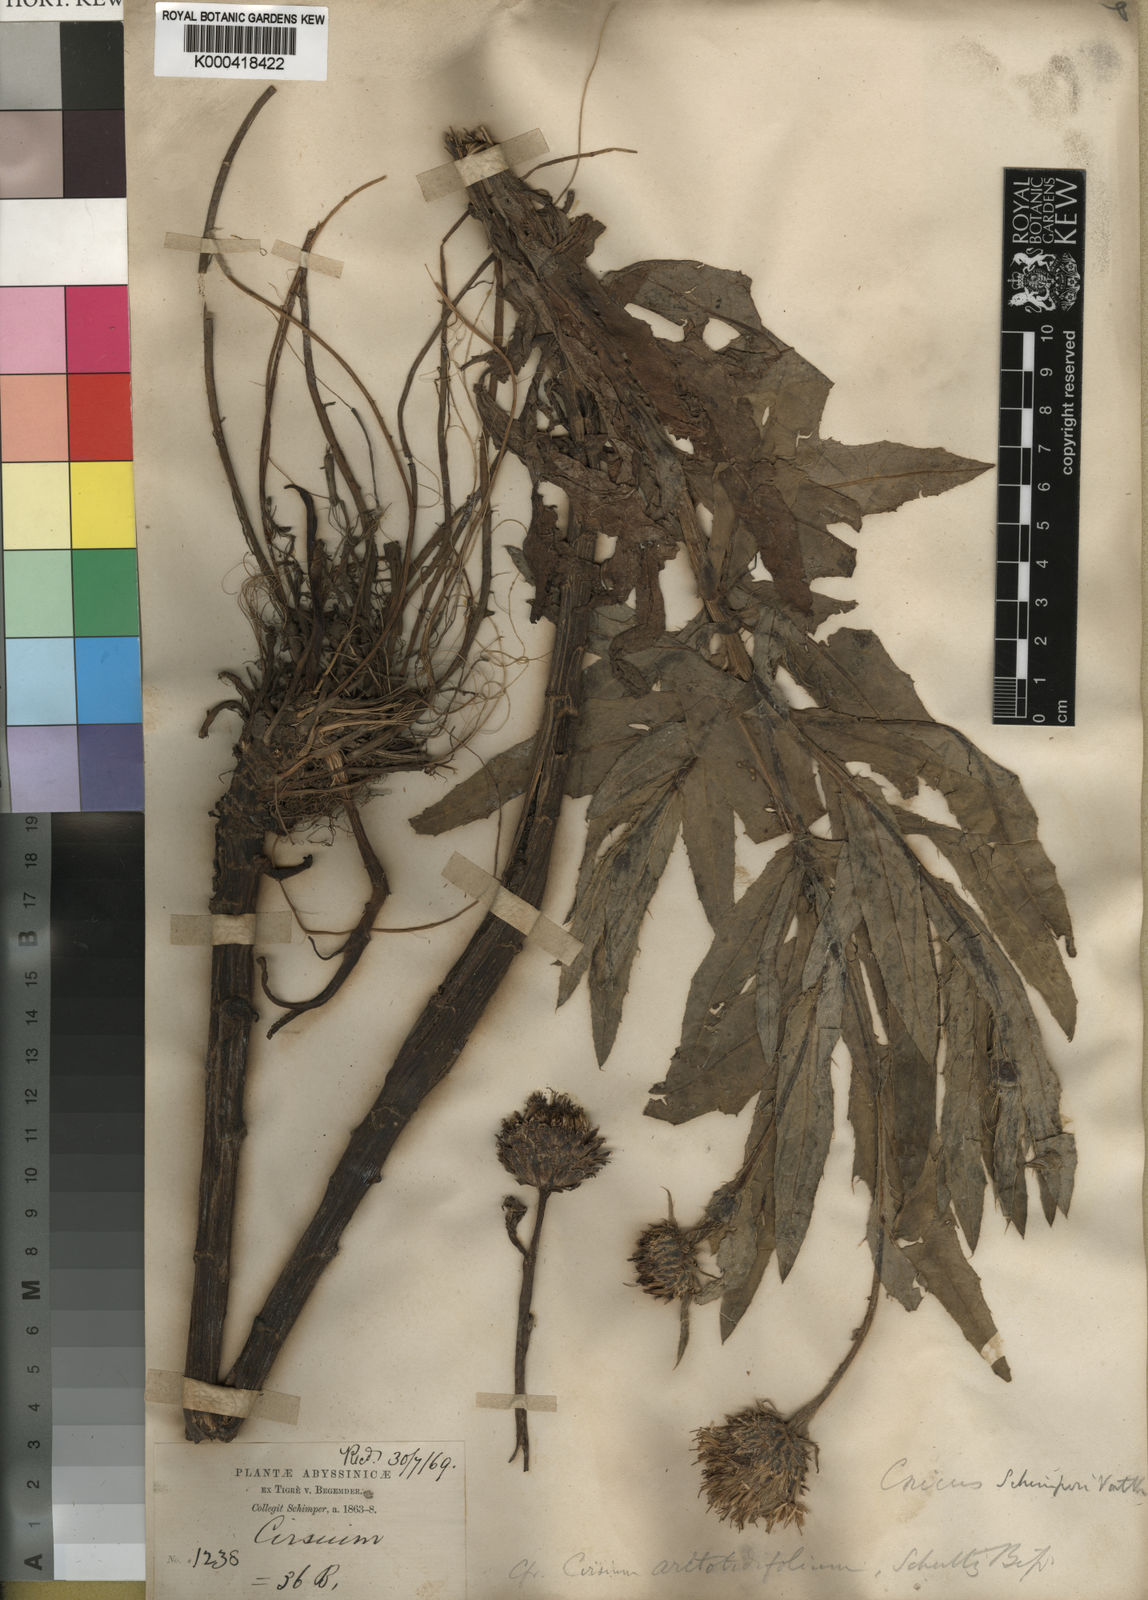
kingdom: Plantae
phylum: Tracheophyta
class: Magnoliopsida
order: Asterales
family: Asteraceae
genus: Cirsium
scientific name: Cirsium schimperi
